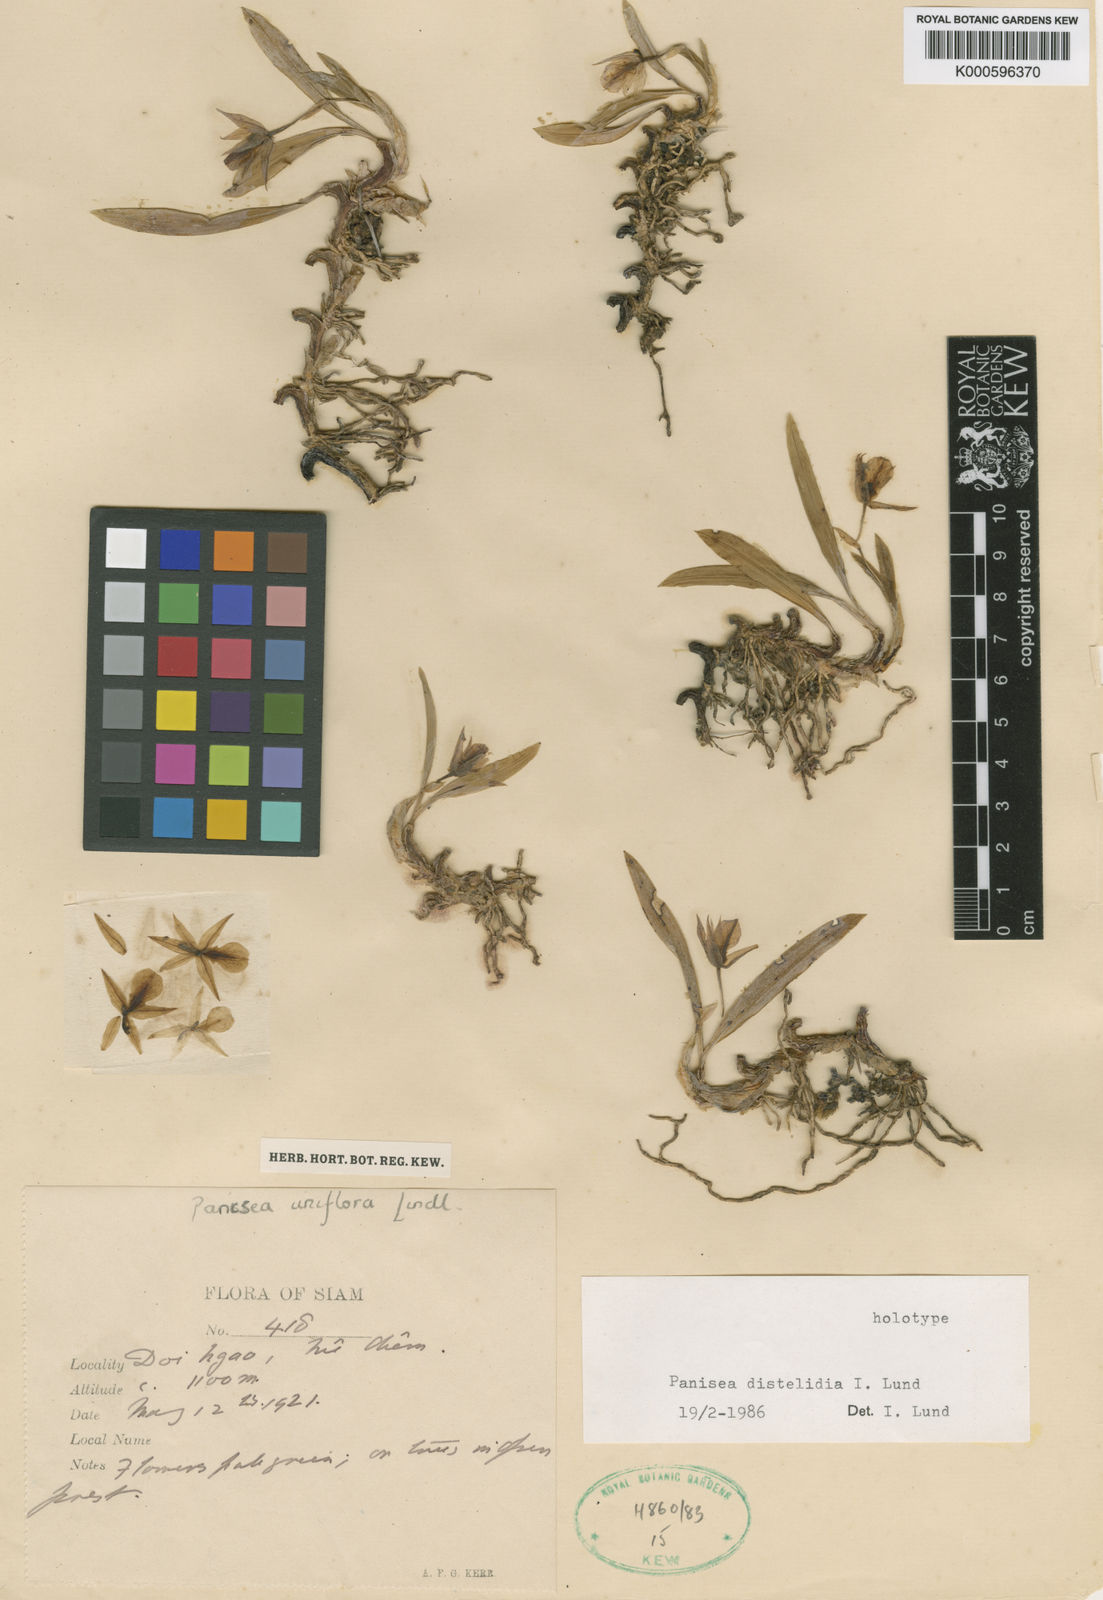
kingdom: Plantae
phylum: Tracheophyta
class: Liliopsida
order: Asparagales
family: Orchidaceae
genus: Coelogyne
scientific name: Coelogyne distelidia
